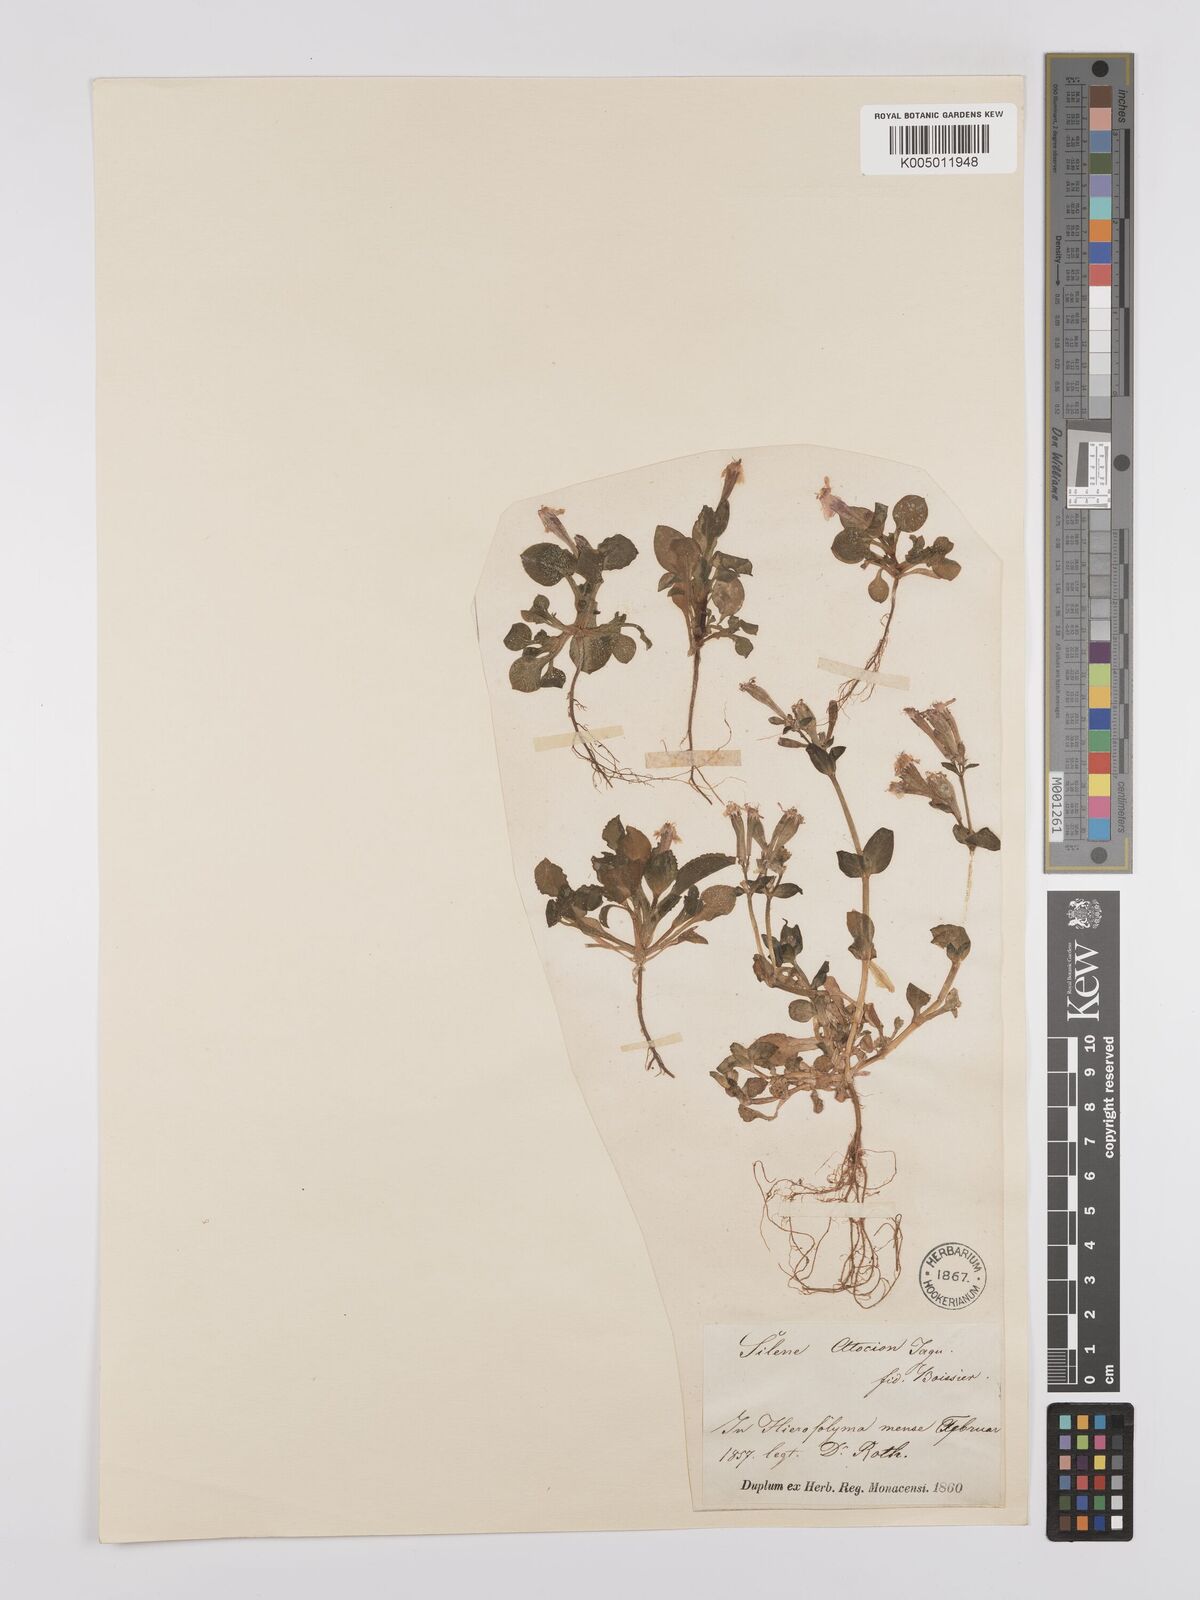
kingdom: Plantae
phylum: Tracheophyta
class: Magnoliopsida
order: Caryophyllales
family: Caryophyllaceae
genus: Silene
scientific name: Silene aegyptiaca
